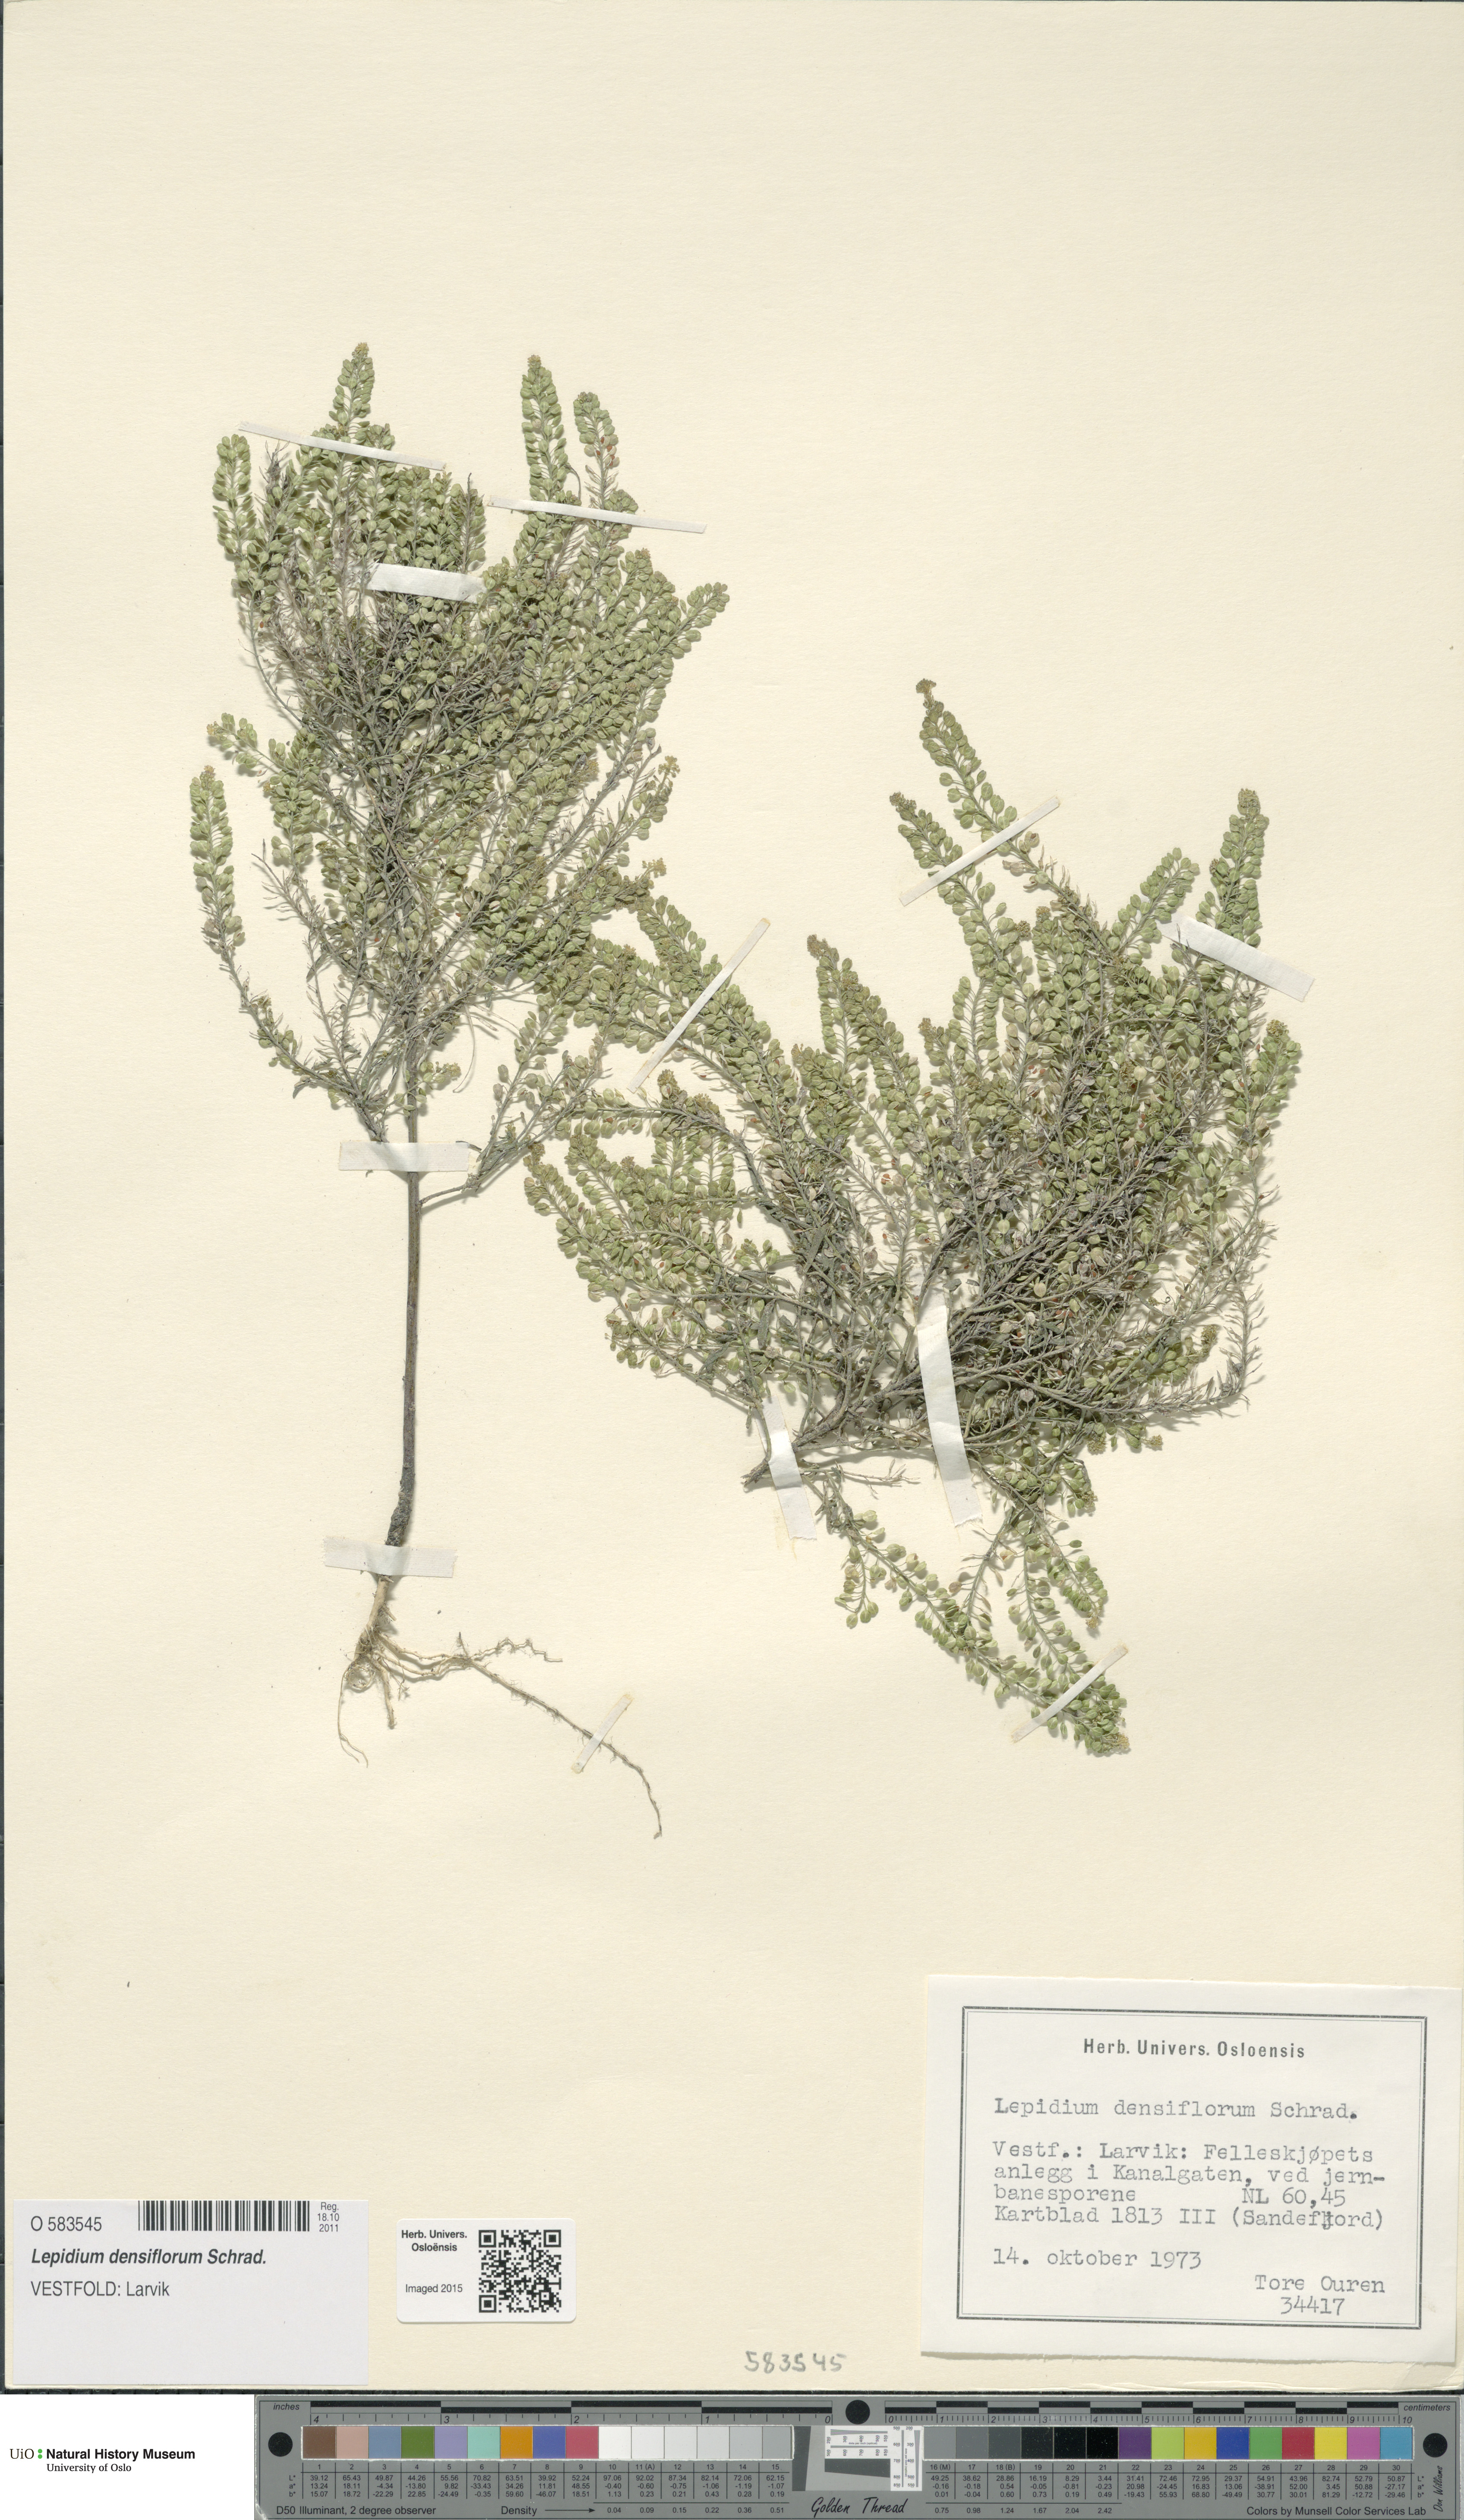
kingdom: Plantae
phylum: Tracheophyta
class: Magnoliopsida
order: Brassicales
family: Brassicaceae
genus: Lepidium
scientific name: Lepidium densiflorum
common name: Miner's pepperwort
